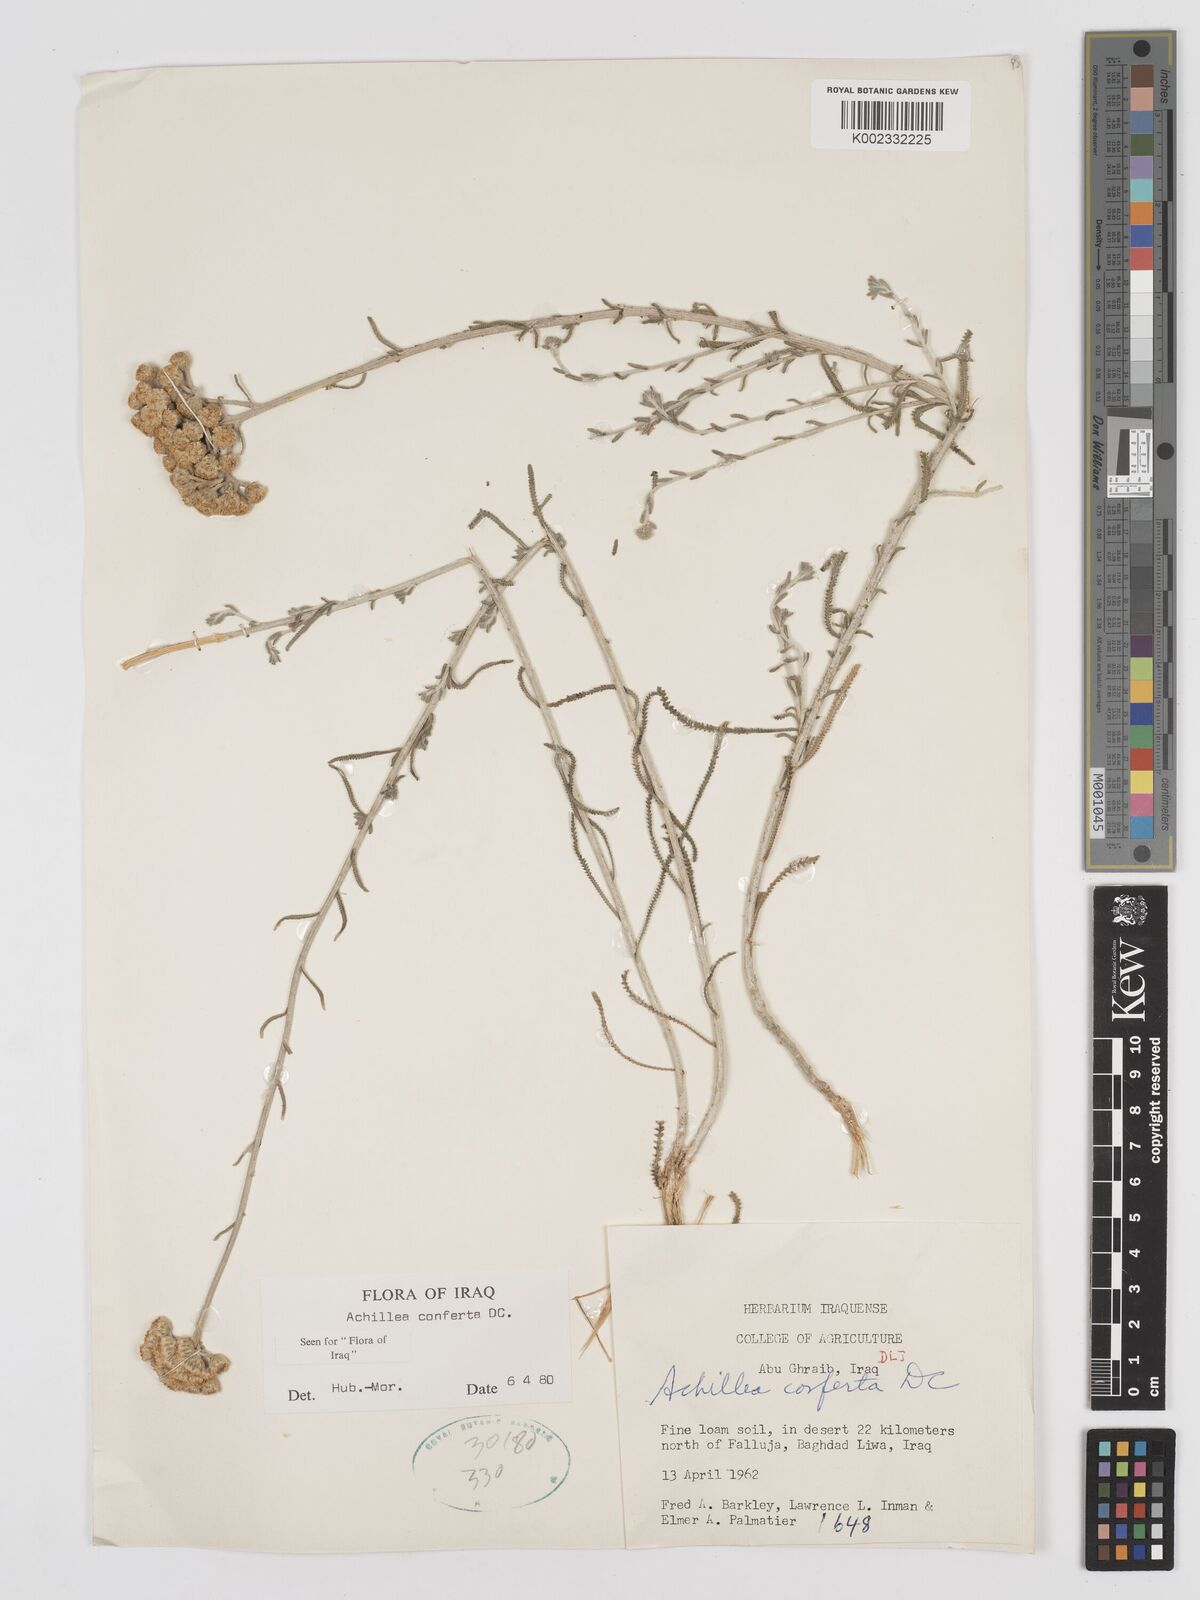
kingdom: Plantae
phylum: Tracheophyta
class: Magnoliopsida
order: Asterales
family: Asteraceae
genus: Achillea
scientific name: Achillea conferta
